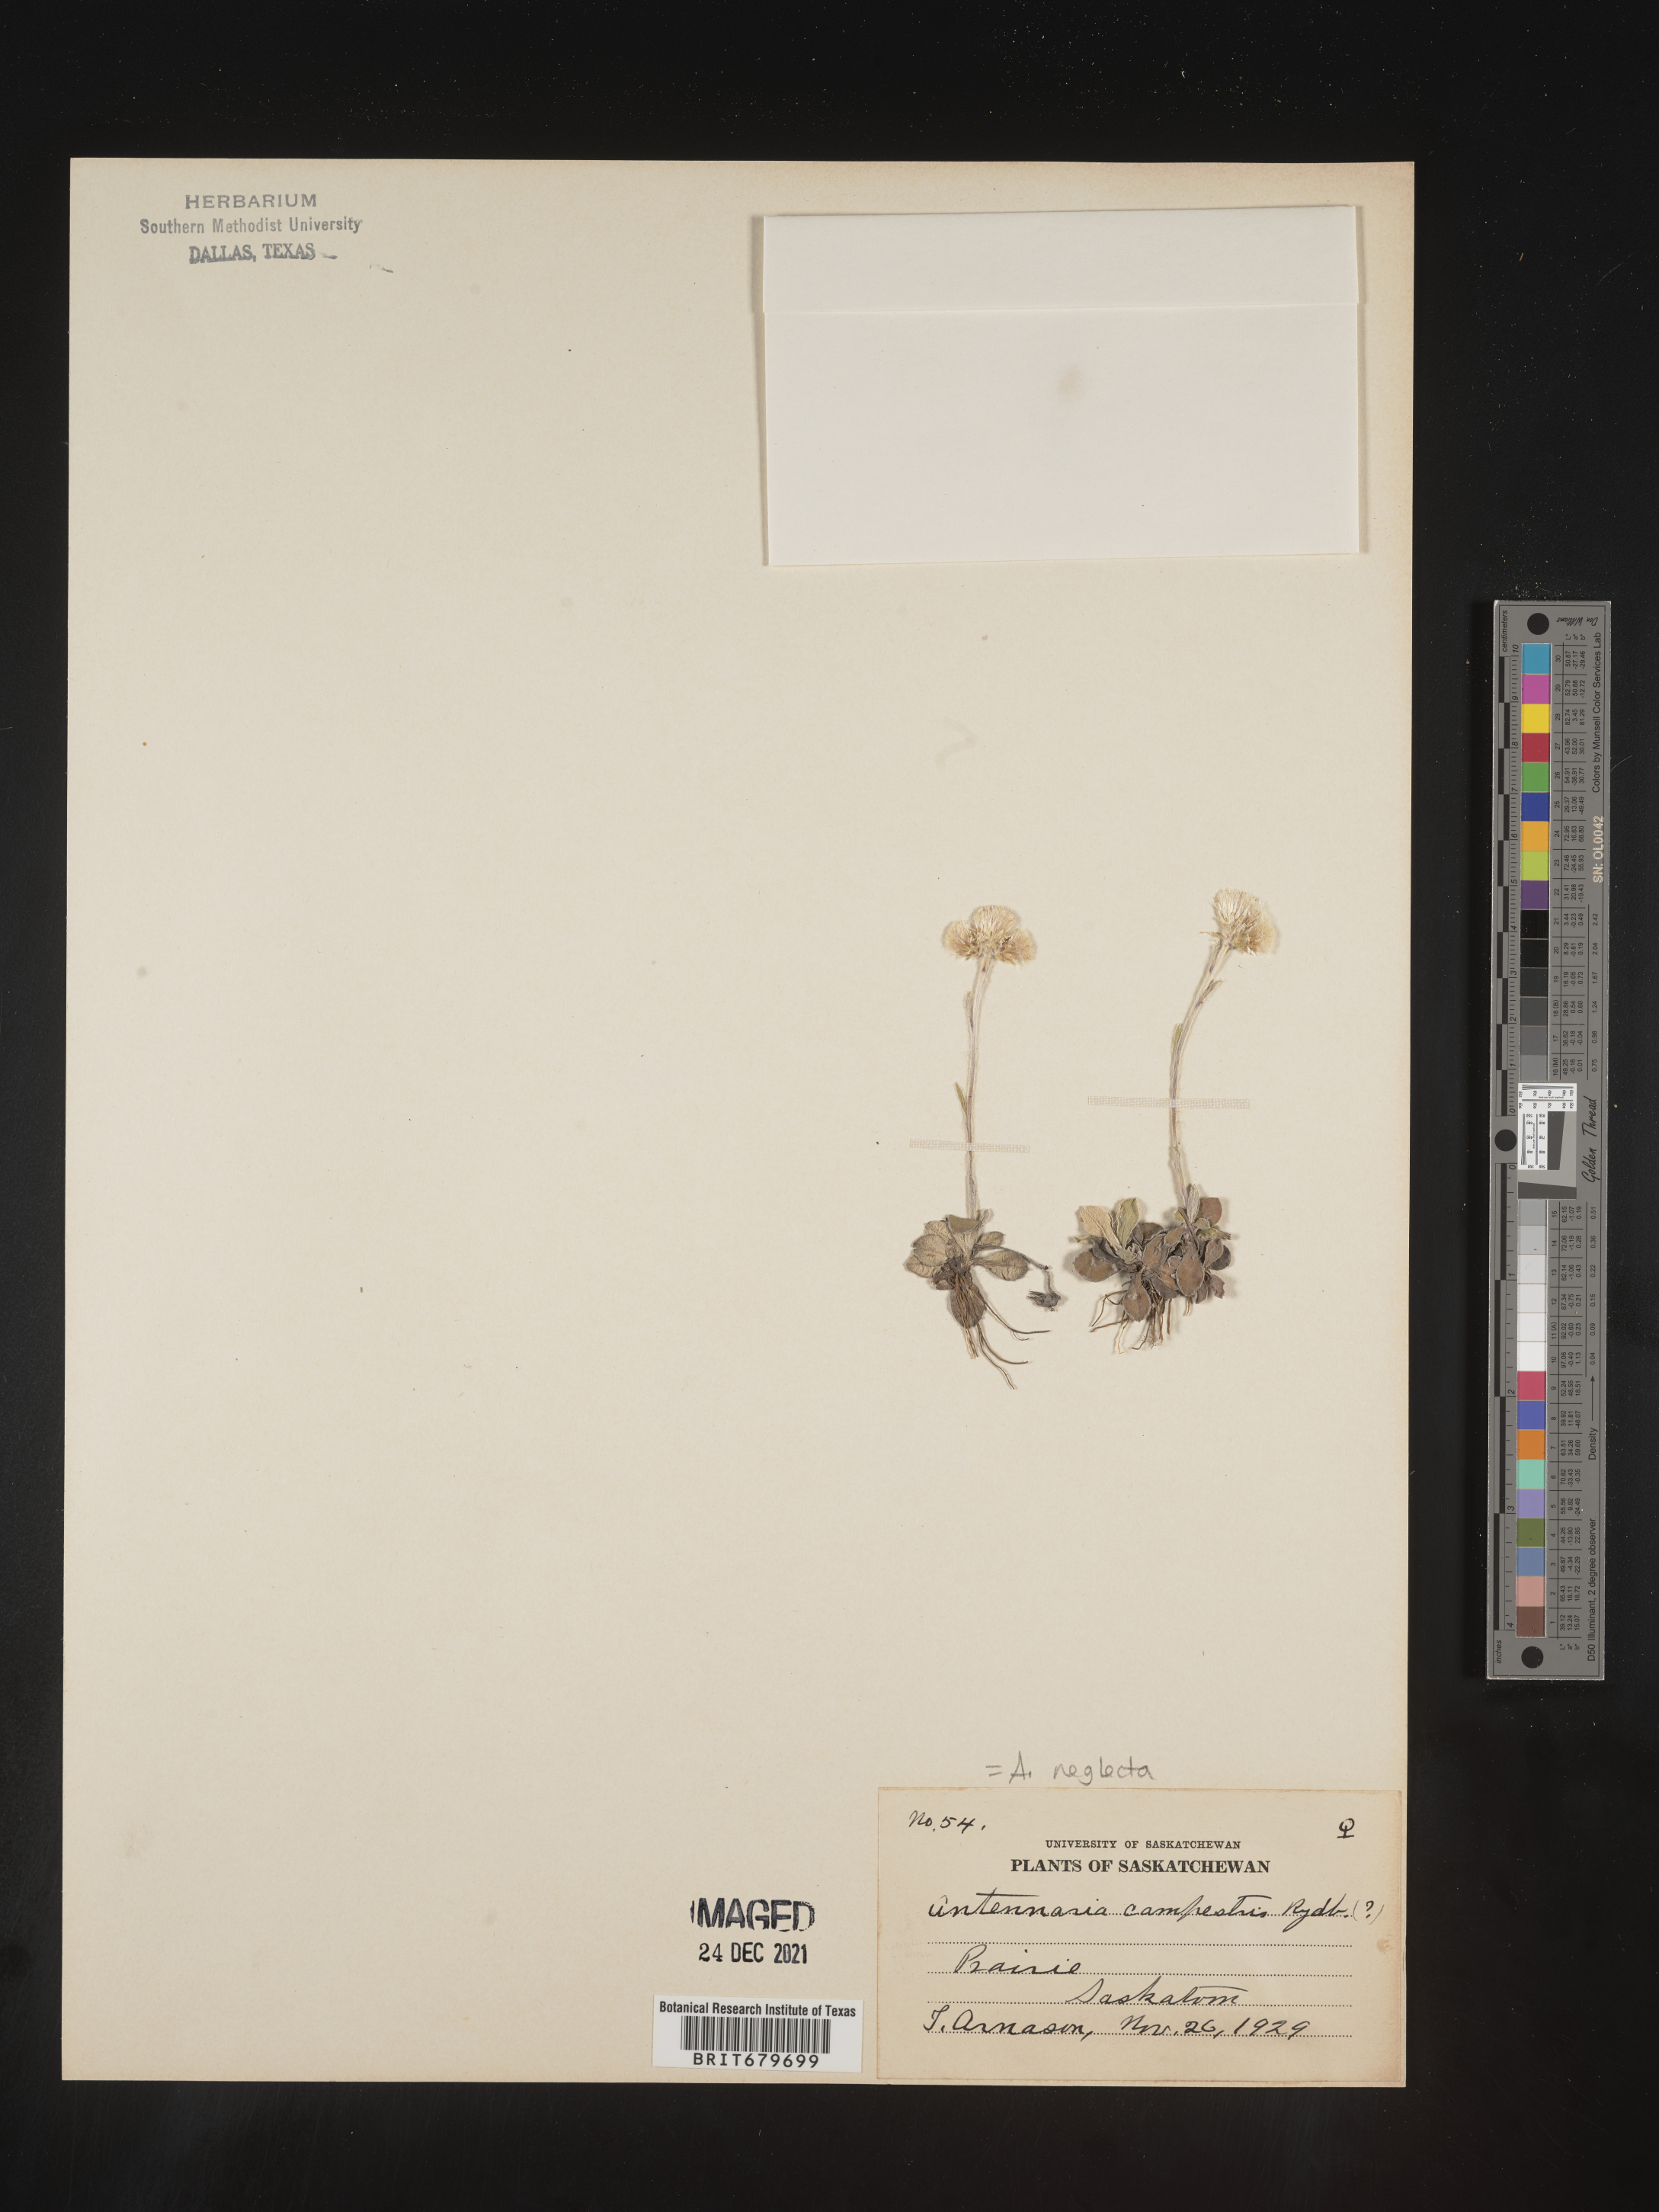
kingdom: Plantae
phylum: Tracheophyta
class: Magnoliopsida
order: Asterales
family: Asteraceae
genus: Antennaria
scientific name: Antennaria neglecta
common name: Field pussytoes
